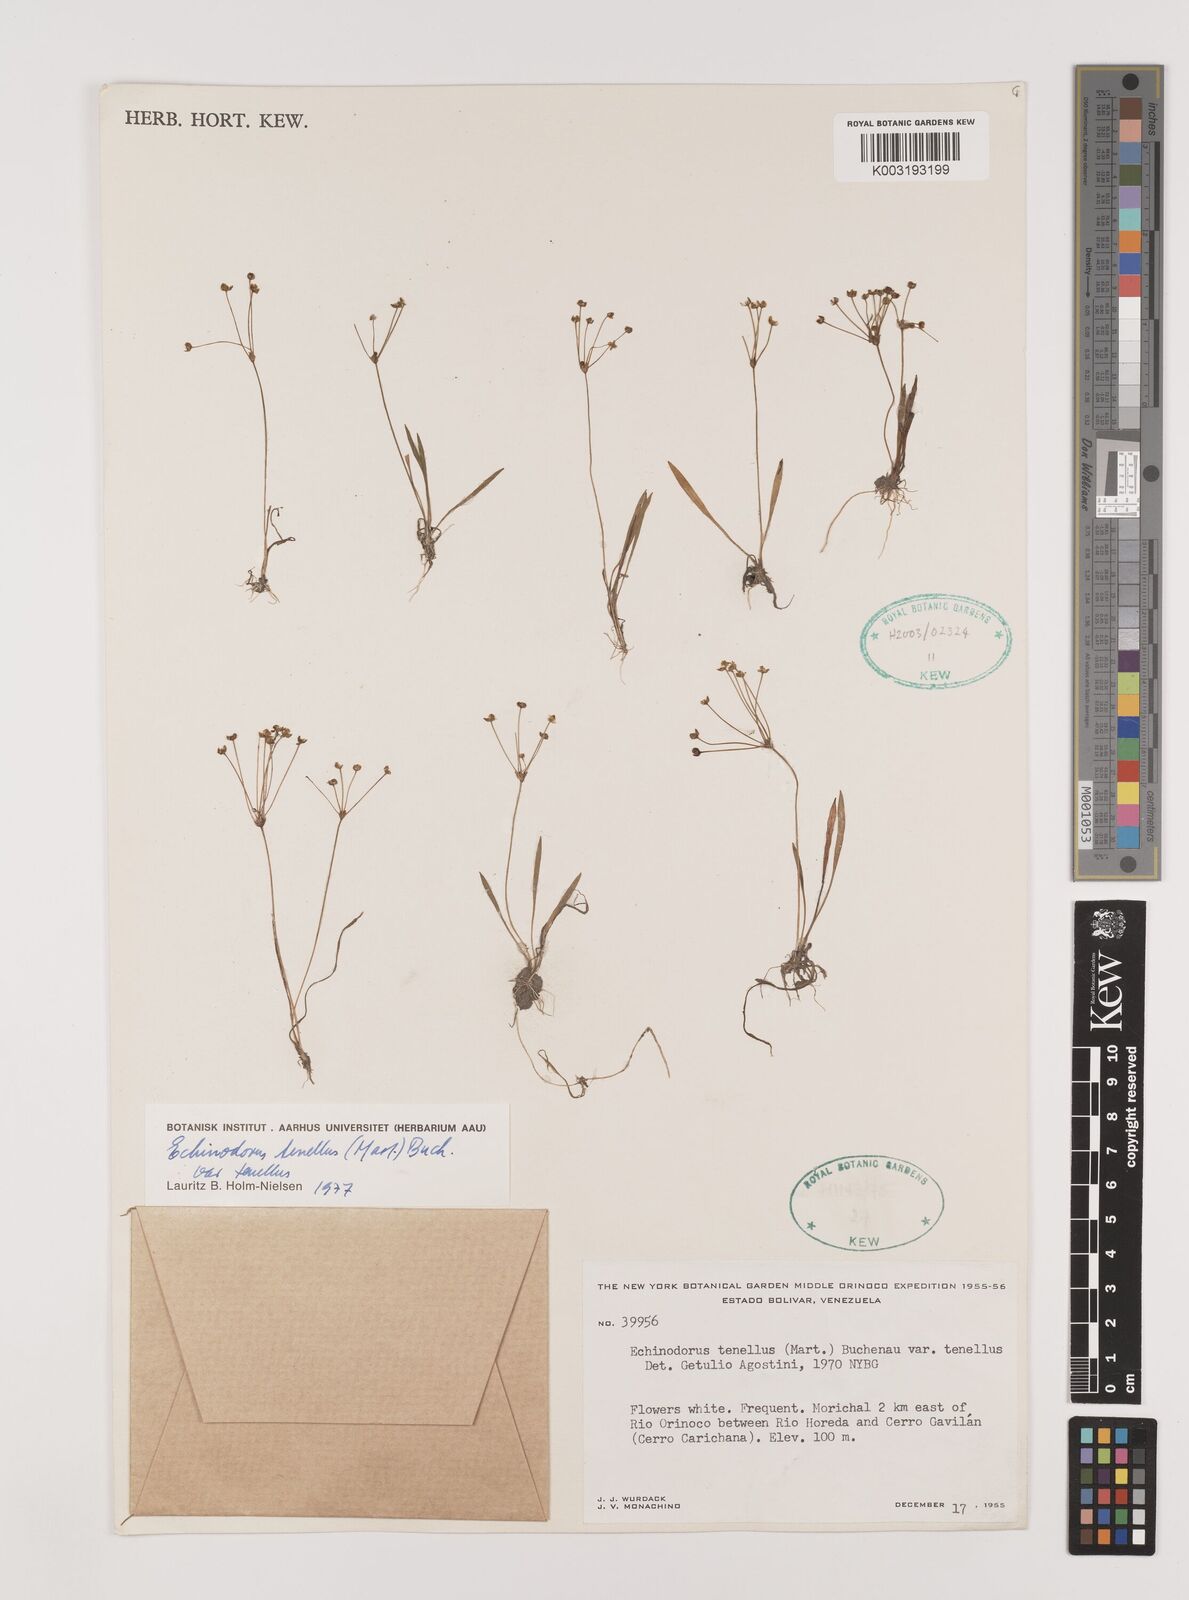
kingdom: Plantae
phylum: Tracheophyta
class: Liliopsida
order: Alismatales
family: Alismataceae
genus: Helanthium
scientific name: Helanthium tenellum
